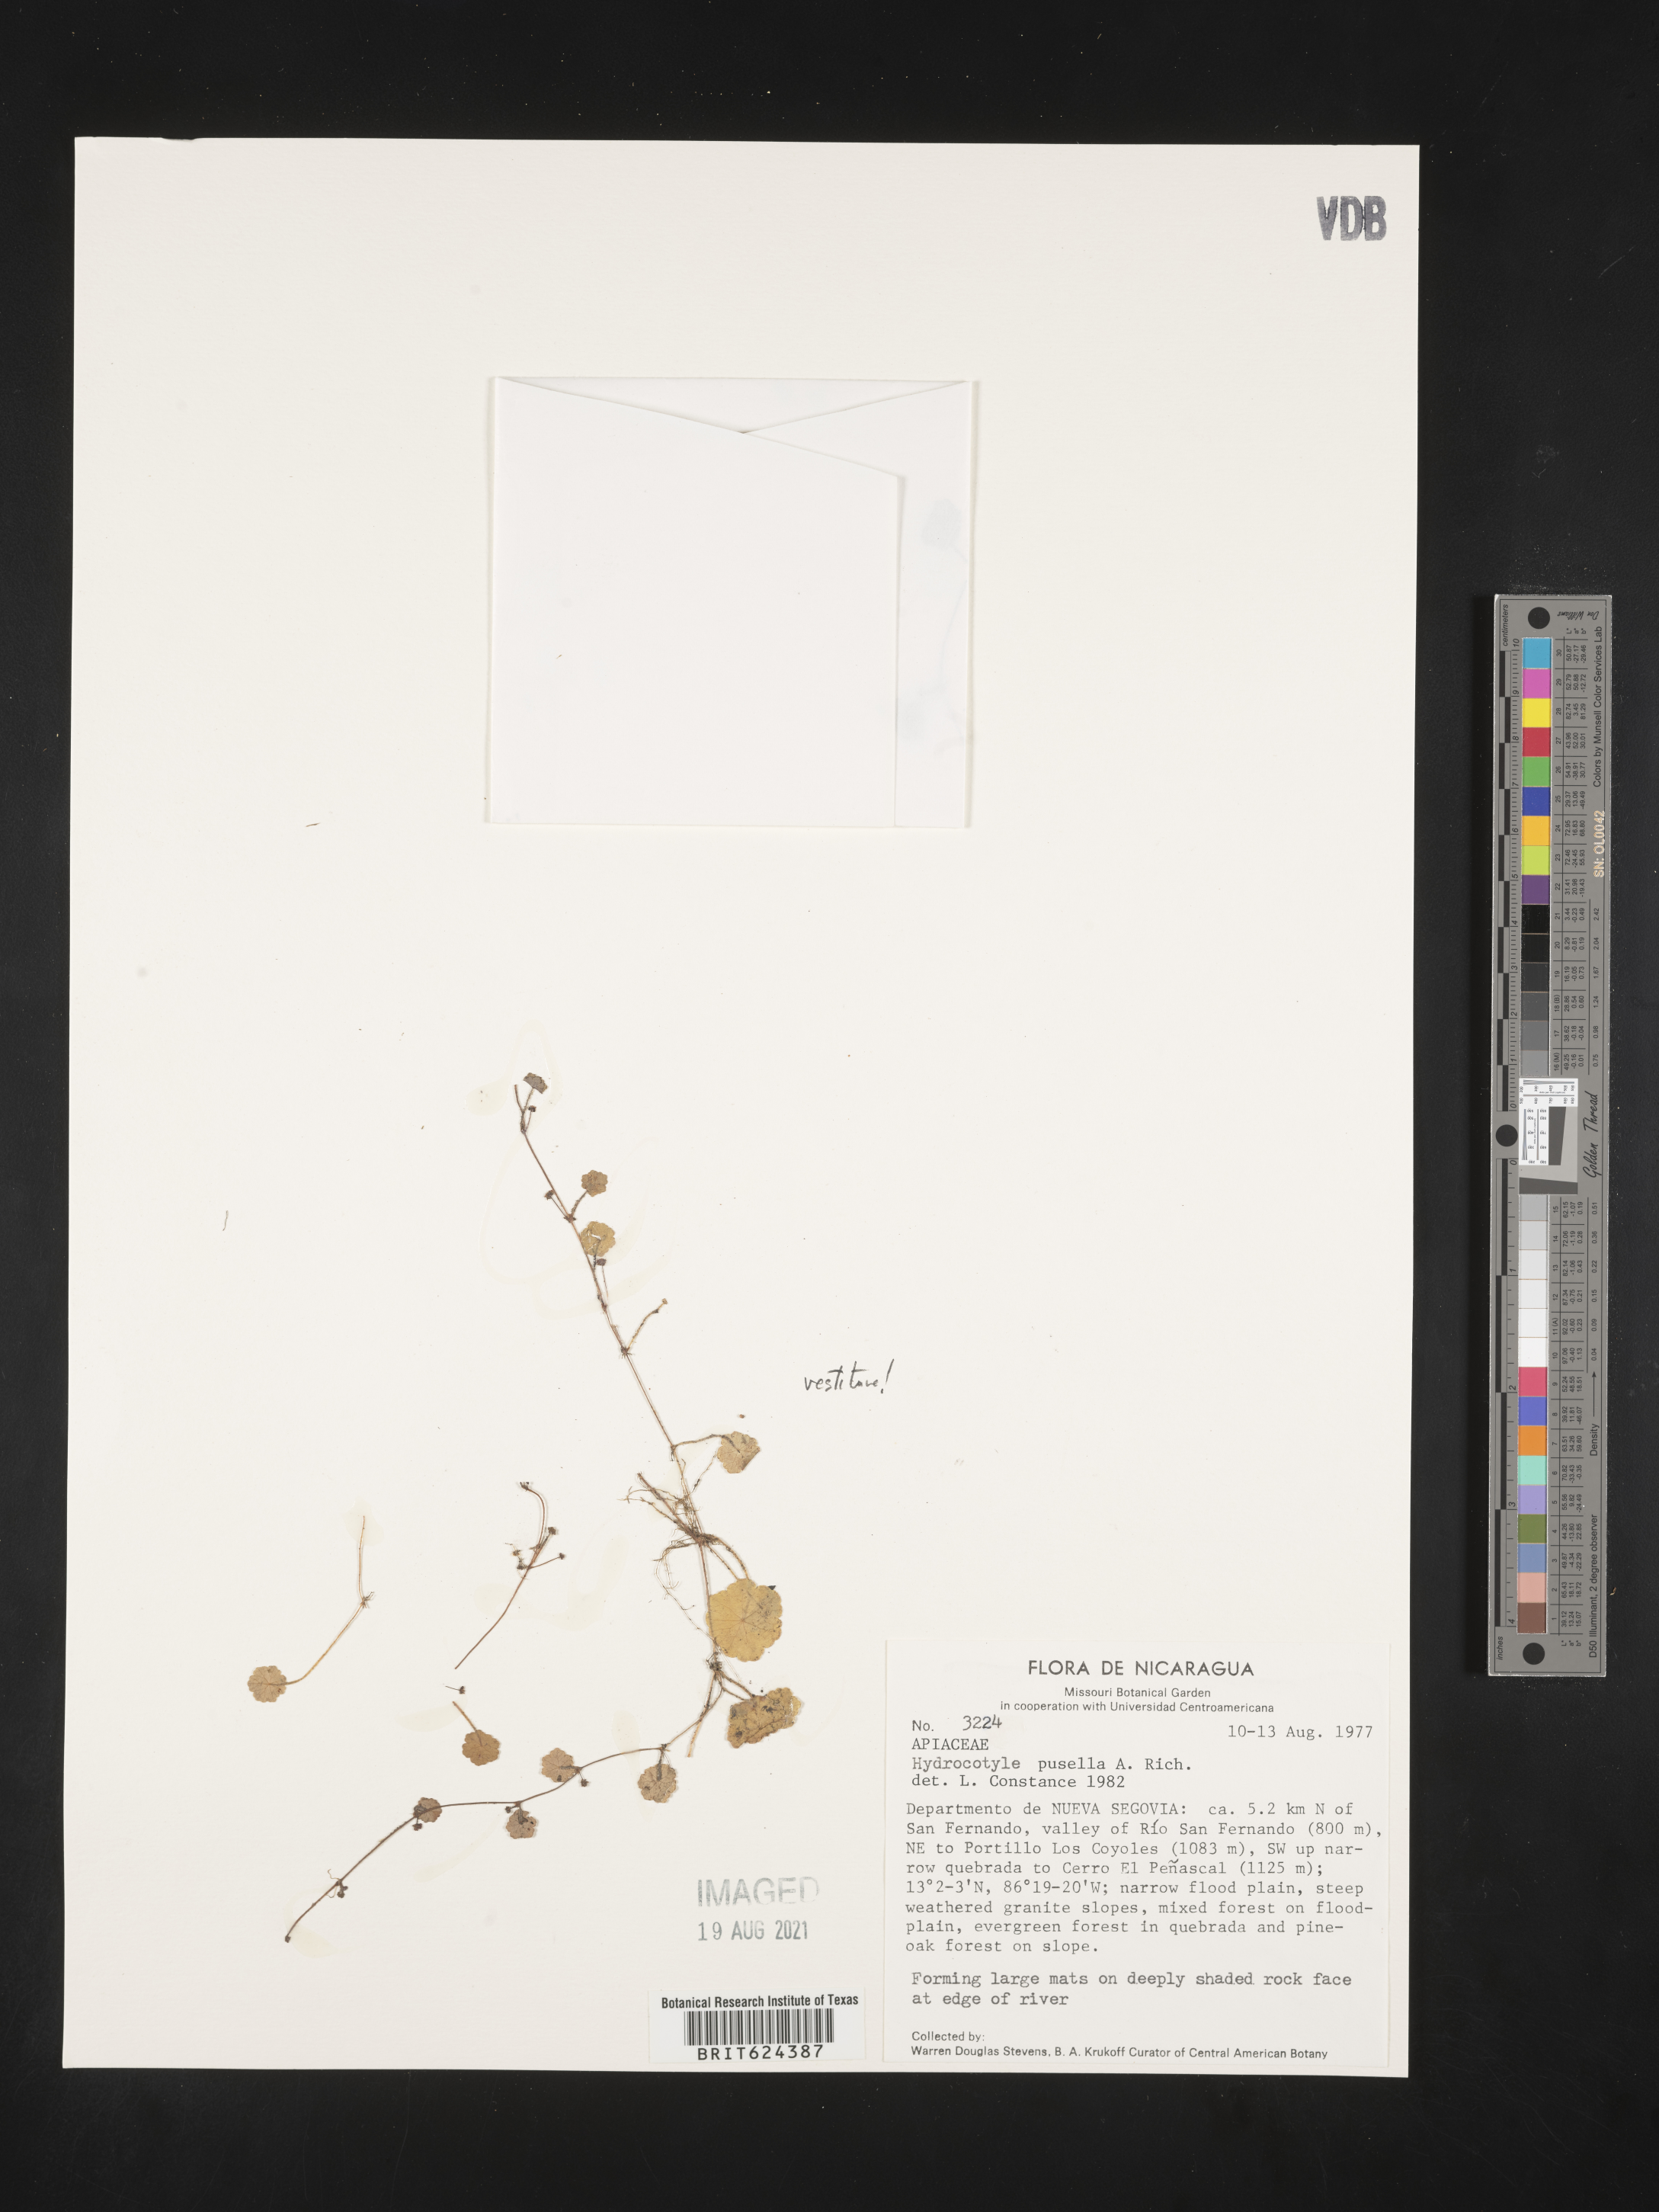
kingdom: Plantae
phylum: Tracheophyta
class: Magnoliopsida
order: Apiales
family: Araliaceae
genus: Hydrocotyle
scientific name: Hydrocotyle pusilla
